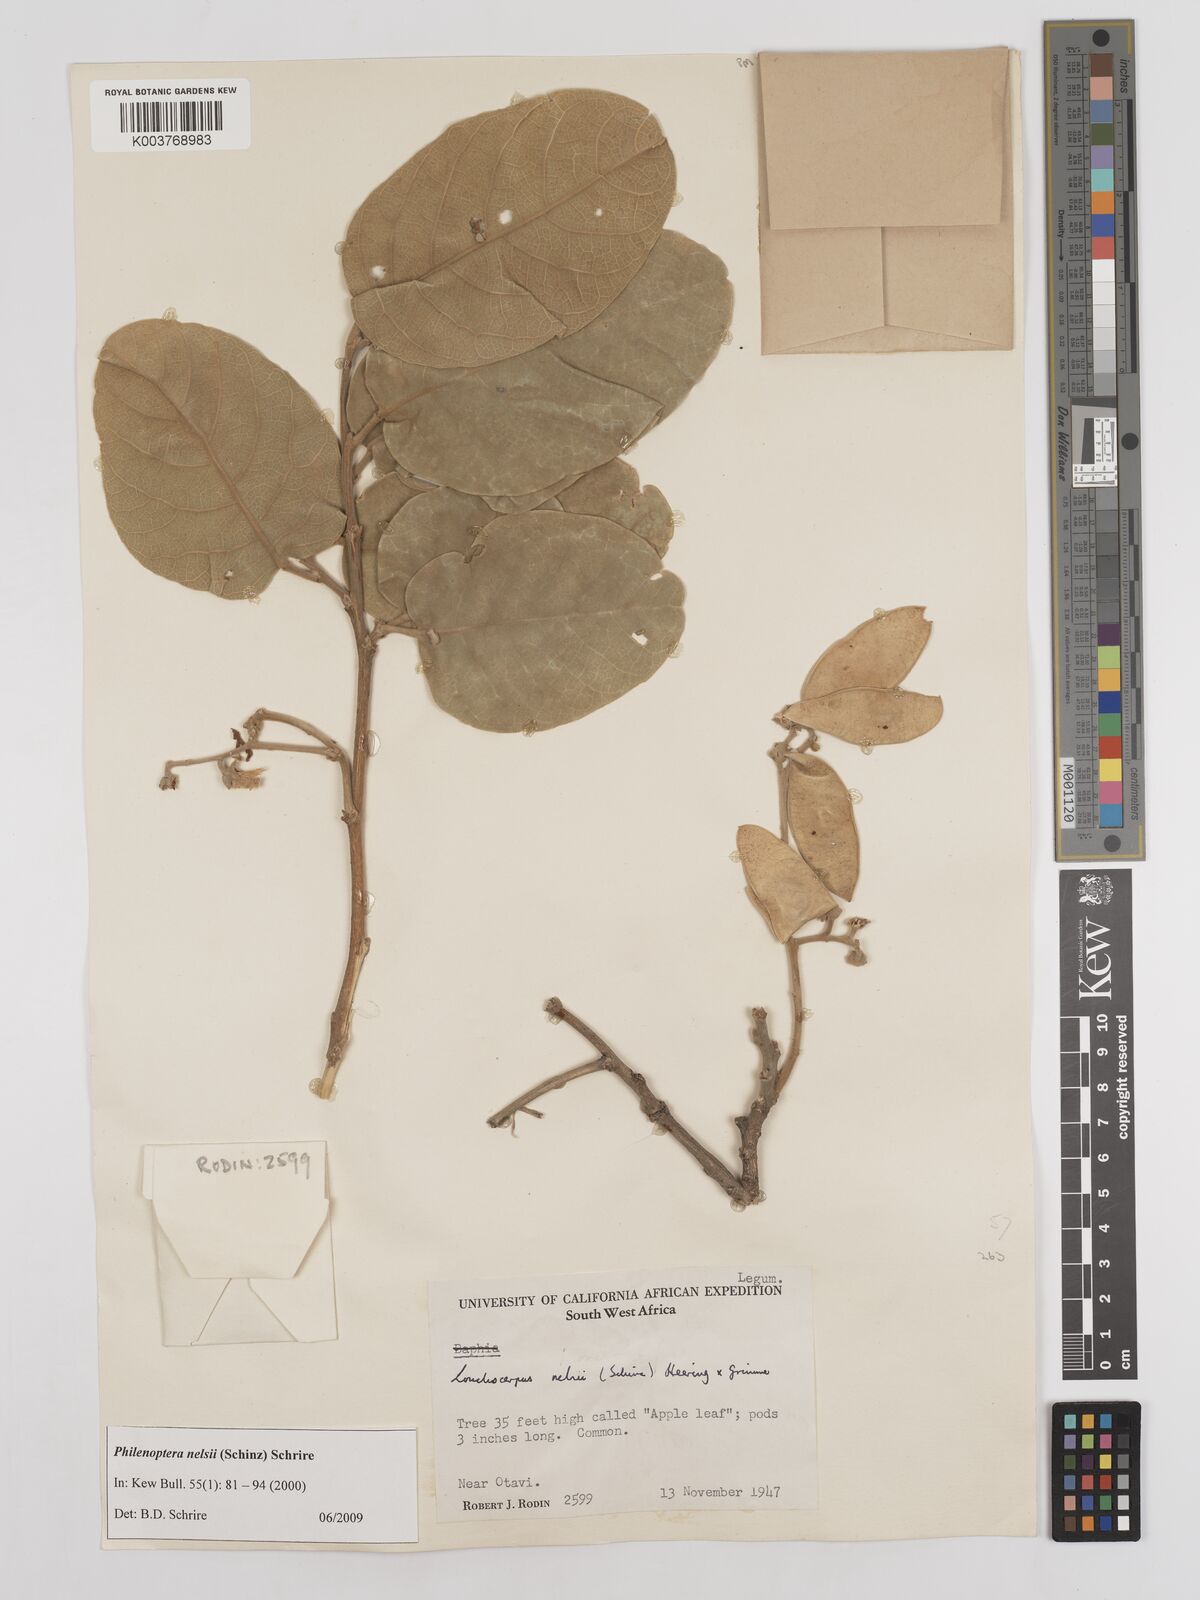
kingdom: Plantae
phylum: Tracheophyta
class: Magnoliopsida
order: Fabales
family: Fabaceae
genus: Philenoptera
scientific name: Philenoptera nelsii
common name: Kalahari apple-leaf
